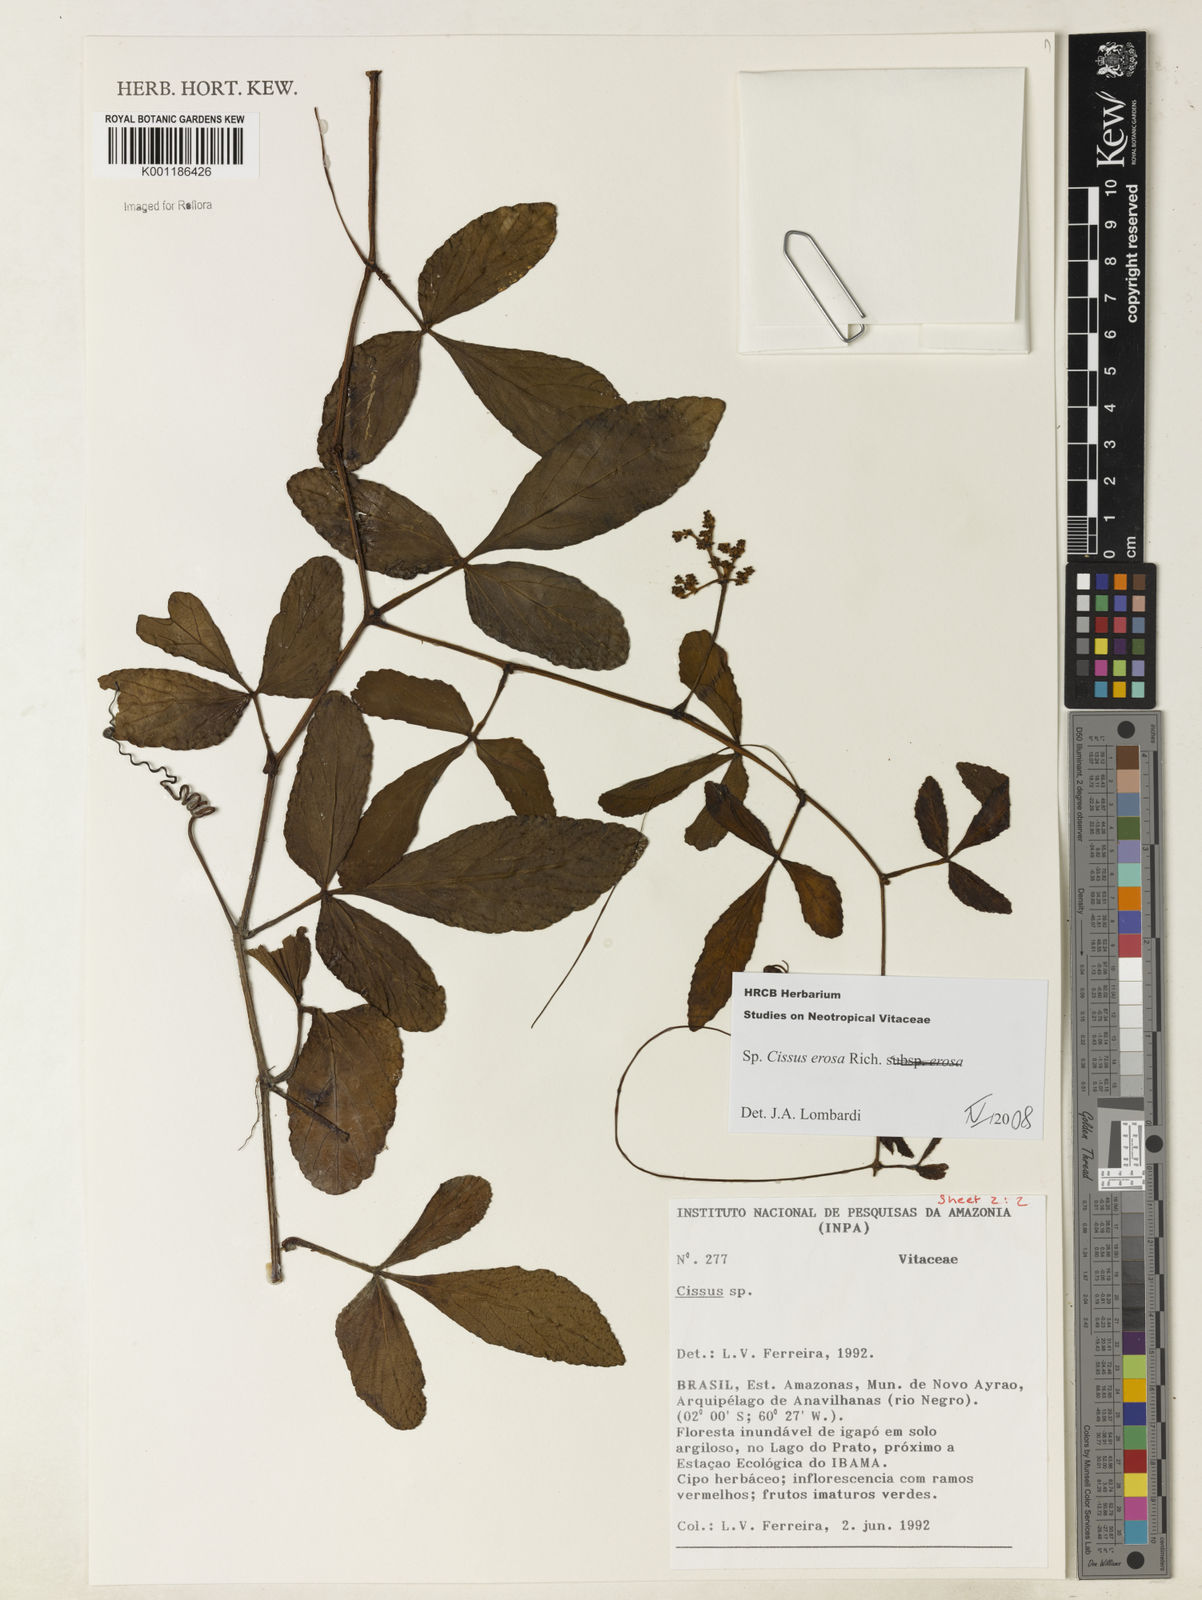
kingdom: Plantae
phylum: Tracheophyta
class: Magnoliopsida
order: Vitales
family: Vitaceae
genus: Cissus
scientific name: Cissus erosa
